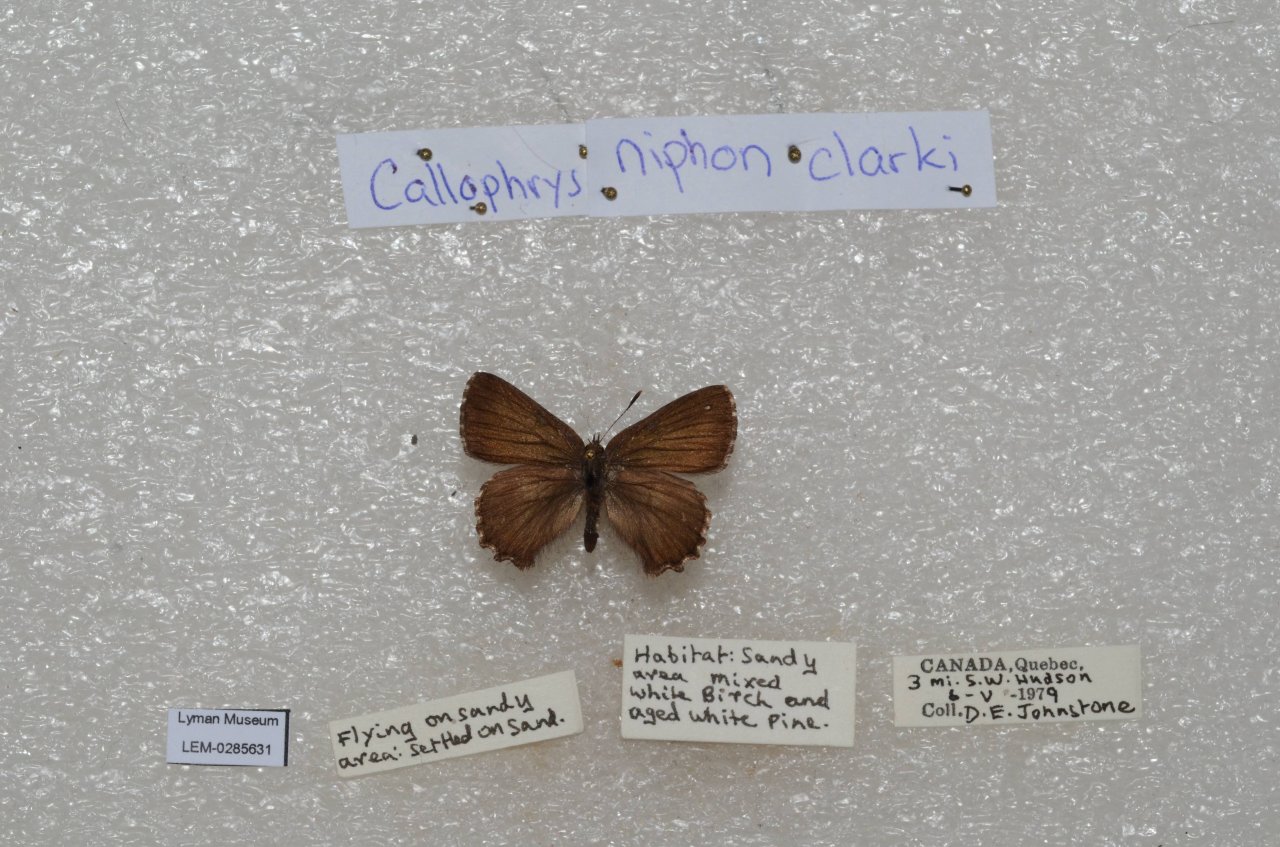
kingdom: Animalia
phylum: Arthropoda
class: Insecta
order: Lepidoptera
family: Lycaenidae
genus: Incisalia
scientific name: Incisalia niphon
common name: Eastern Pine Elfin
